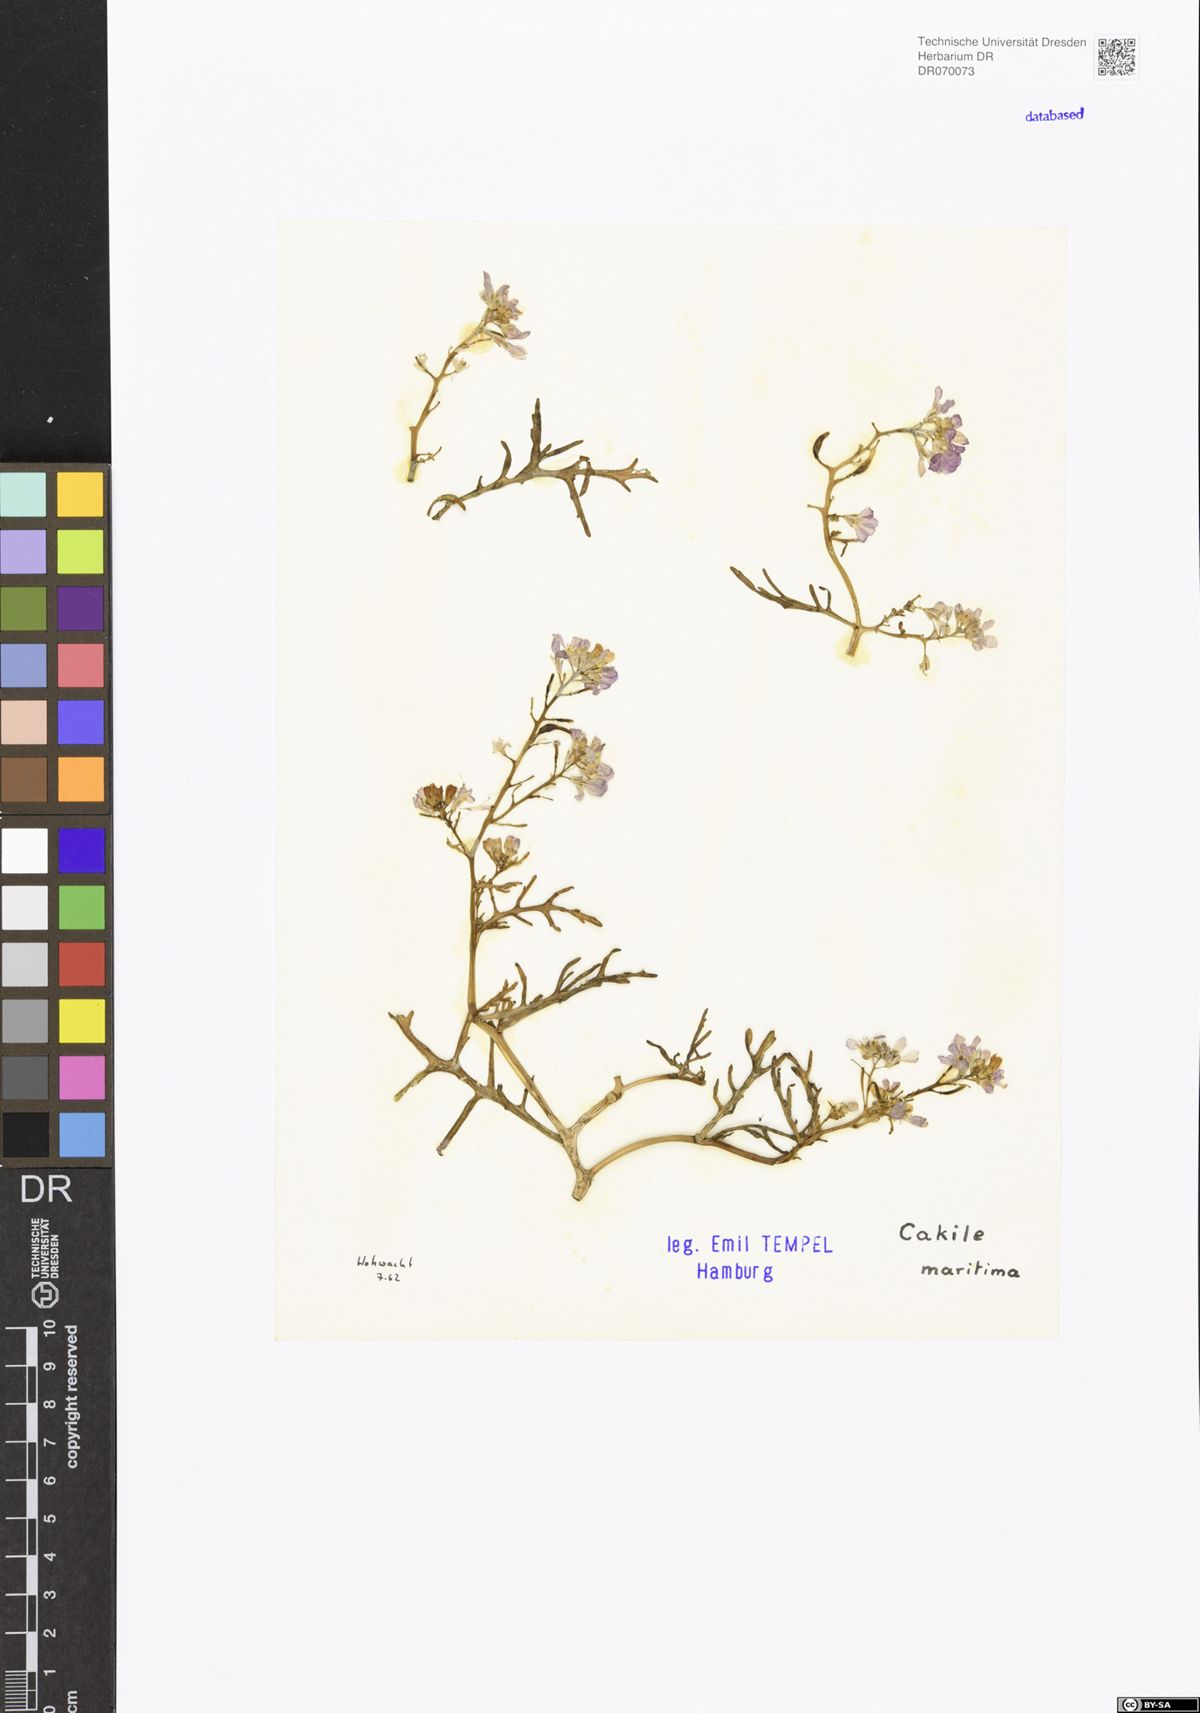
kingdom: Plantae
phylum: Tracheophyta
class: Magnoliopsida
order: Brassicales
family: Brassicaceae
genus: Cakile
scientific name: Cakile maritima
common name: Sea rocket
